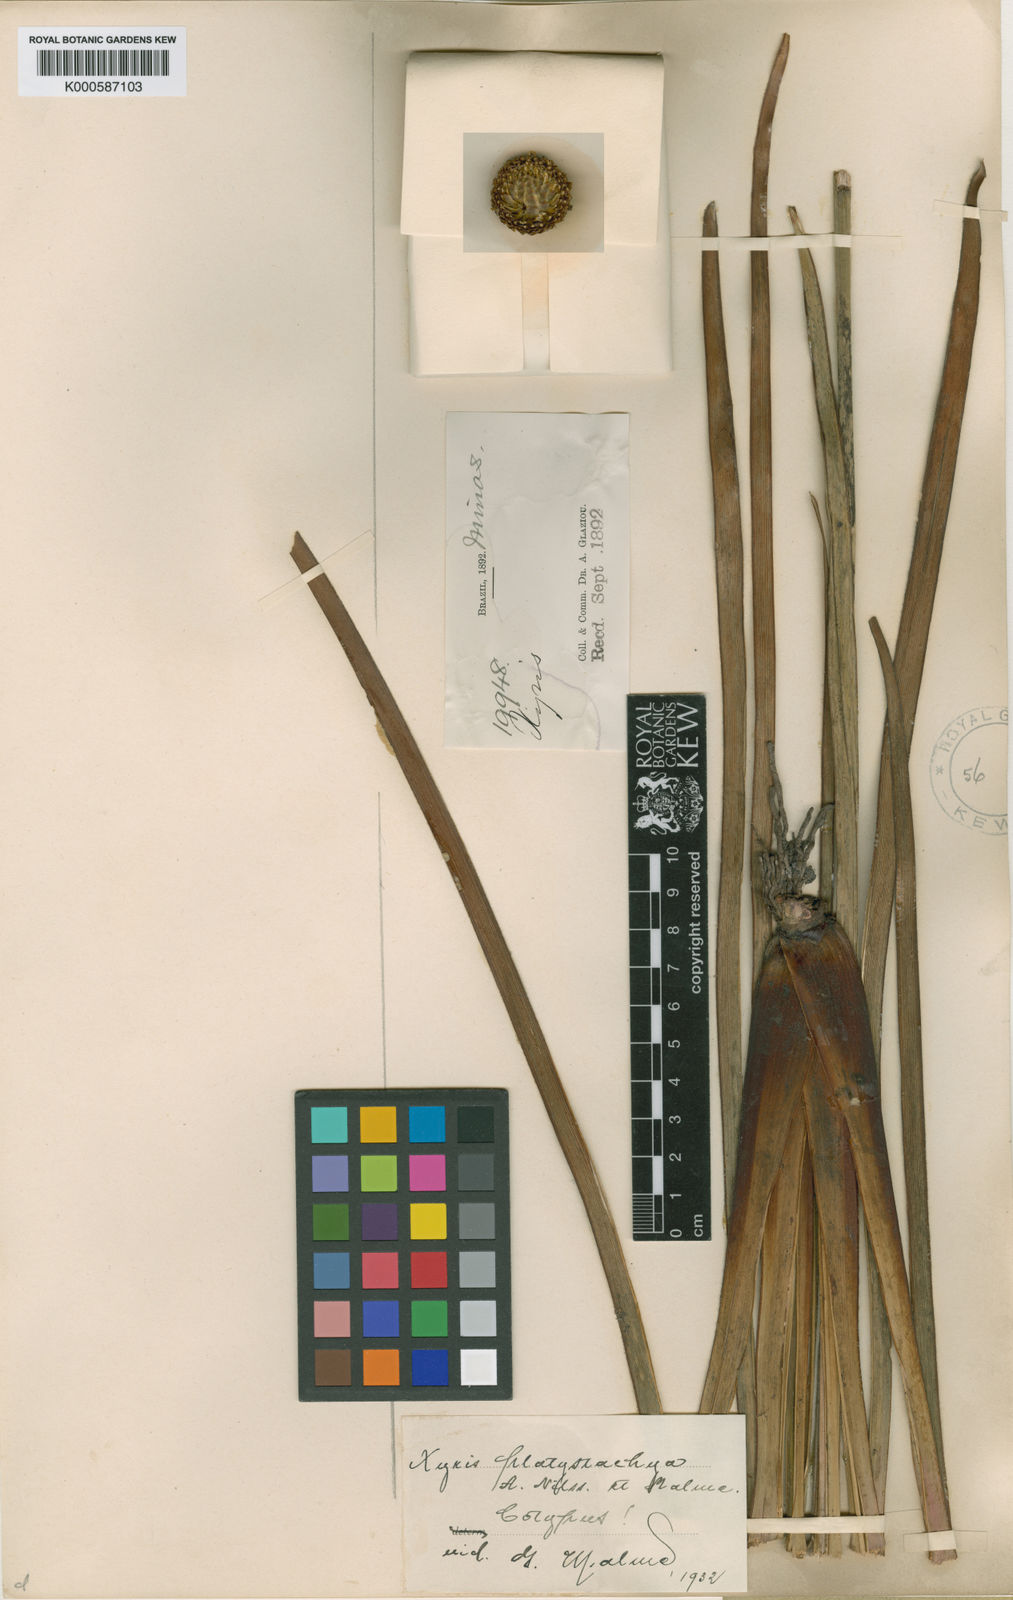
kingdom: Plantae
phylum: Tracheophyta
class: Liliopsida
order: Poales
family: Xyridaceae
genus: Xyris
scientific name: Xyris
